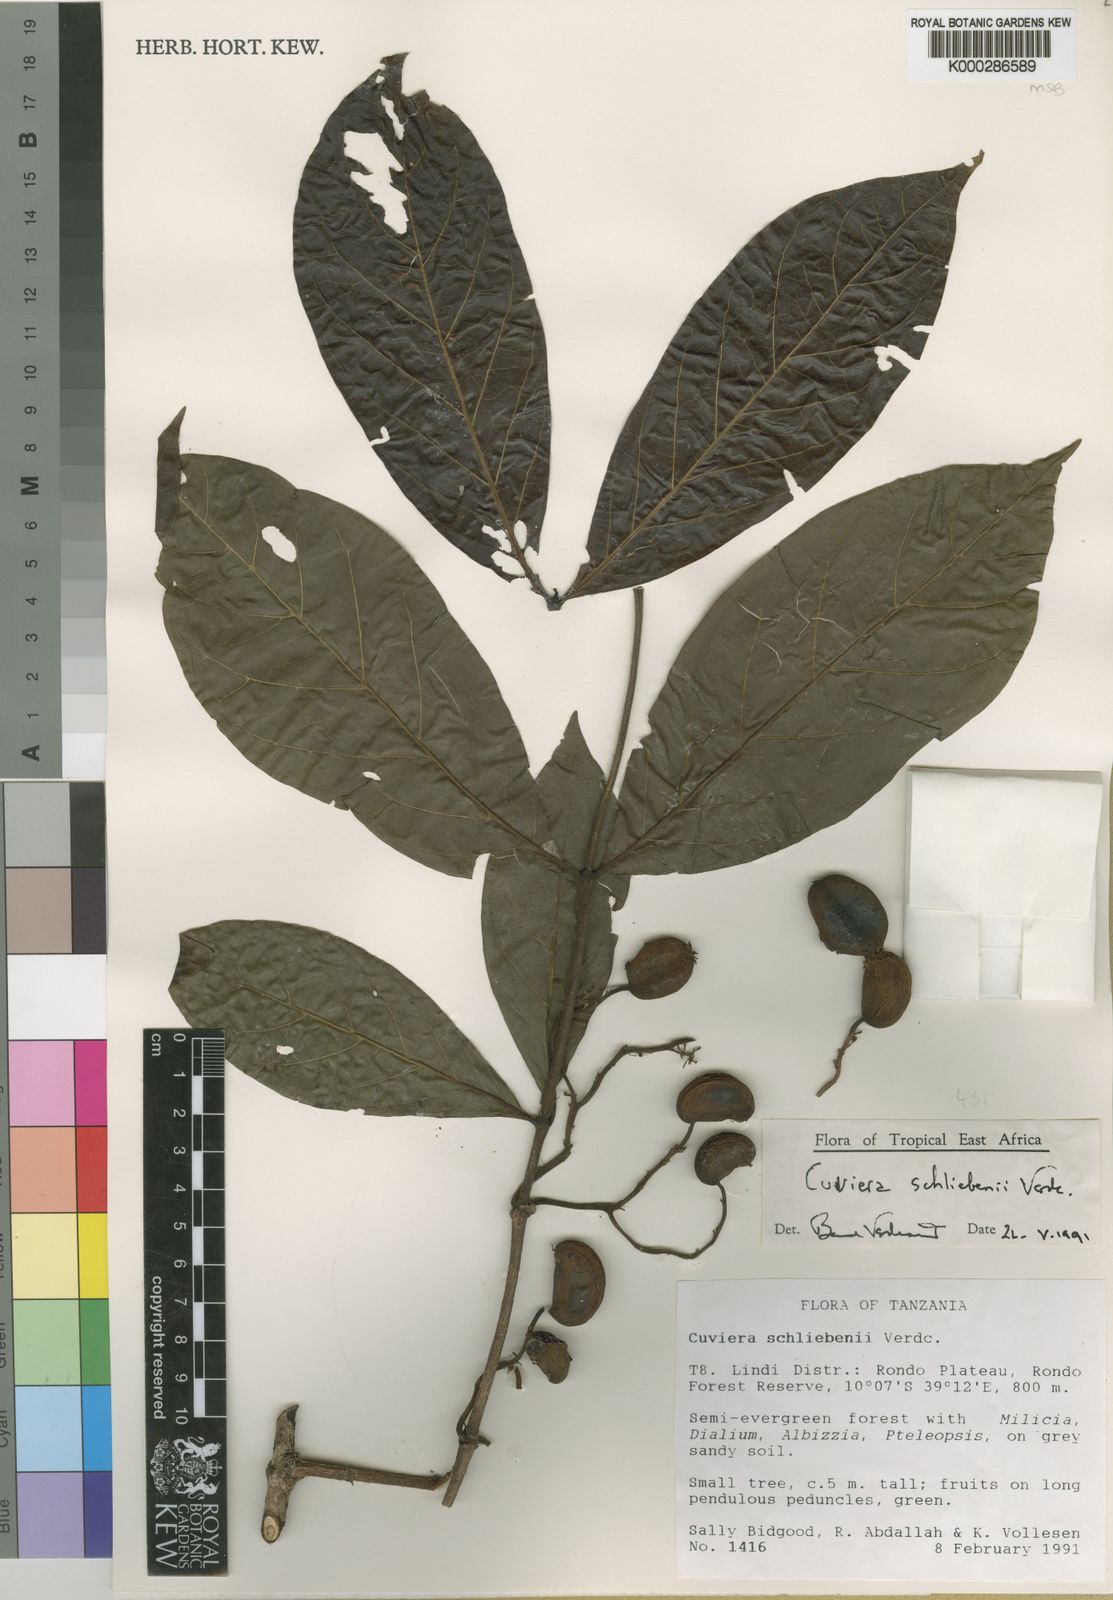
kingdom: Plantae
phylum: Tracheophyta
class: Magnoliopsida
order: Gentianales
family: Rubiaceae
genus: Cuviera
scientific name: Cuviera schliebenii
